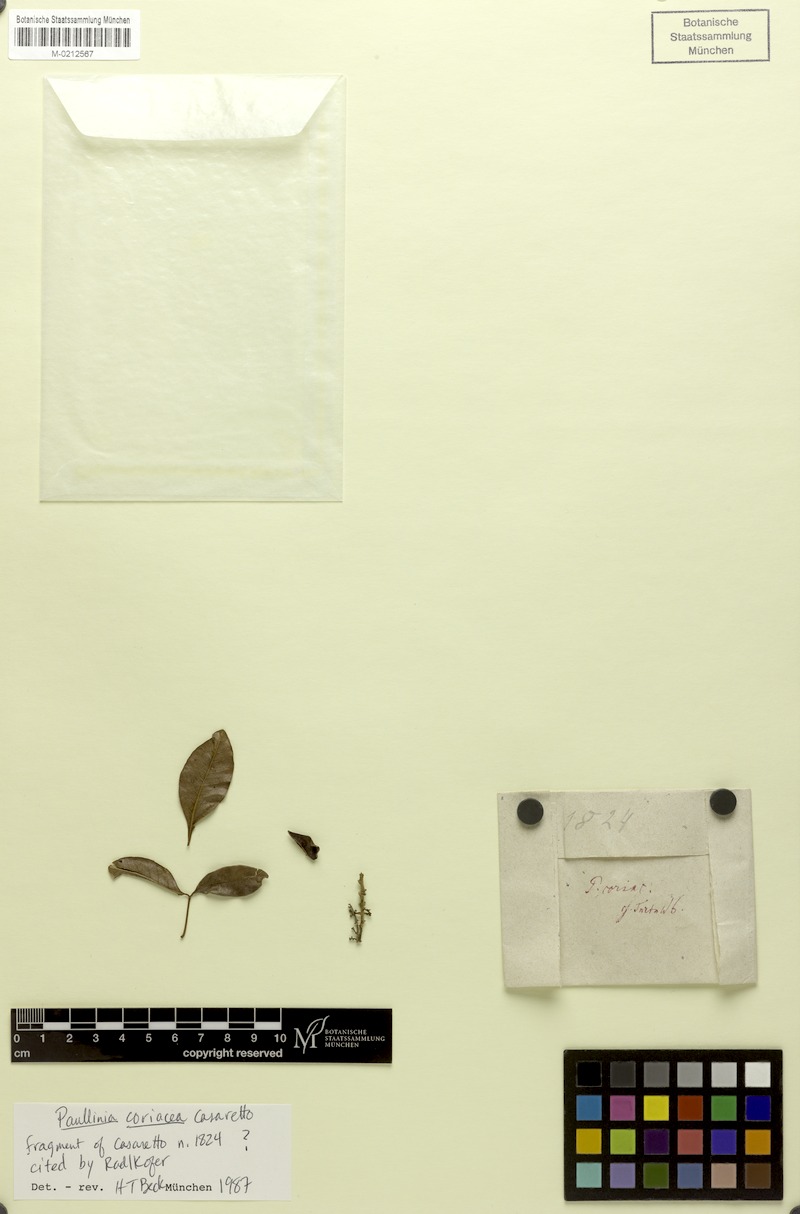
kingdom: Plantae
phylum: Tracheophyta
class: Magnoliopsida
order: Sapindales
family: Sapindaceae
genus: Paullinia
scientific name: Paullinia coriacea
